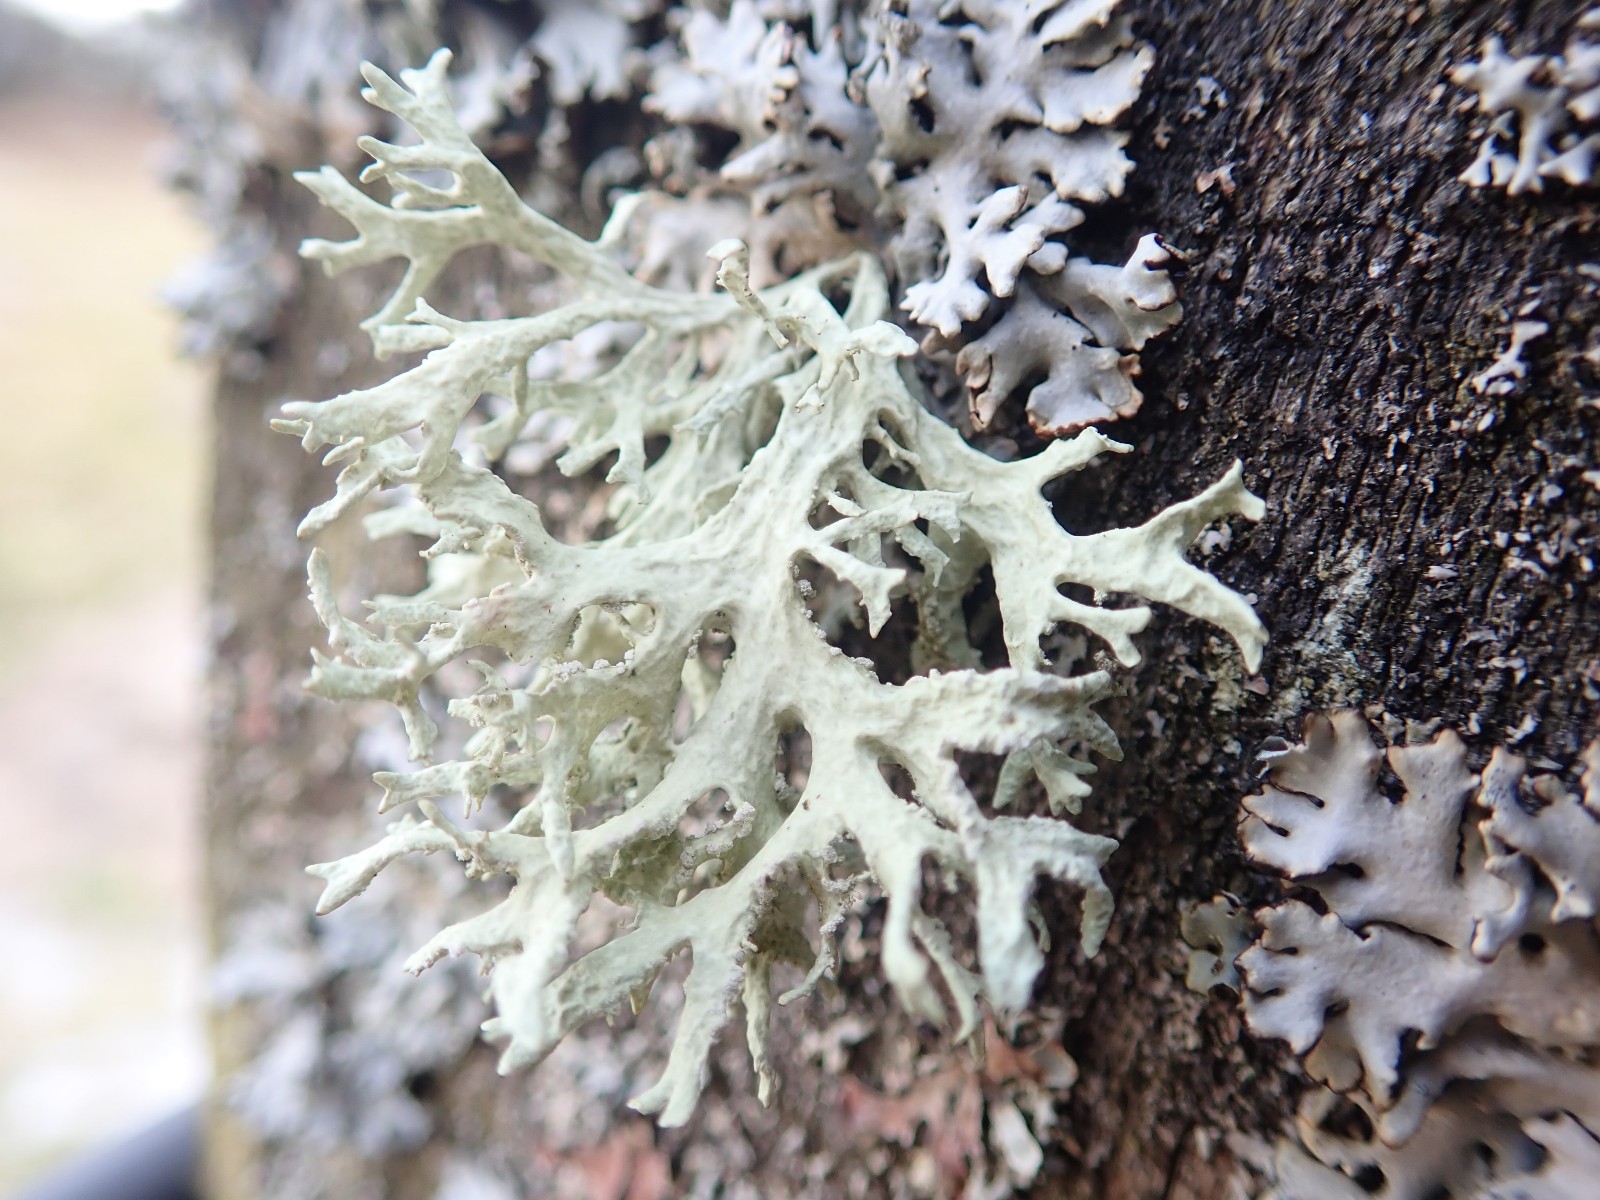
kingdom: Fungi
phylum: Ascomycota
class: Lecanoromycetes
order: Lecanorales
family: Parmeliaceae
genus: Evernia
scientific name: Evernia prunastri
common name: almindelig slåenlav
